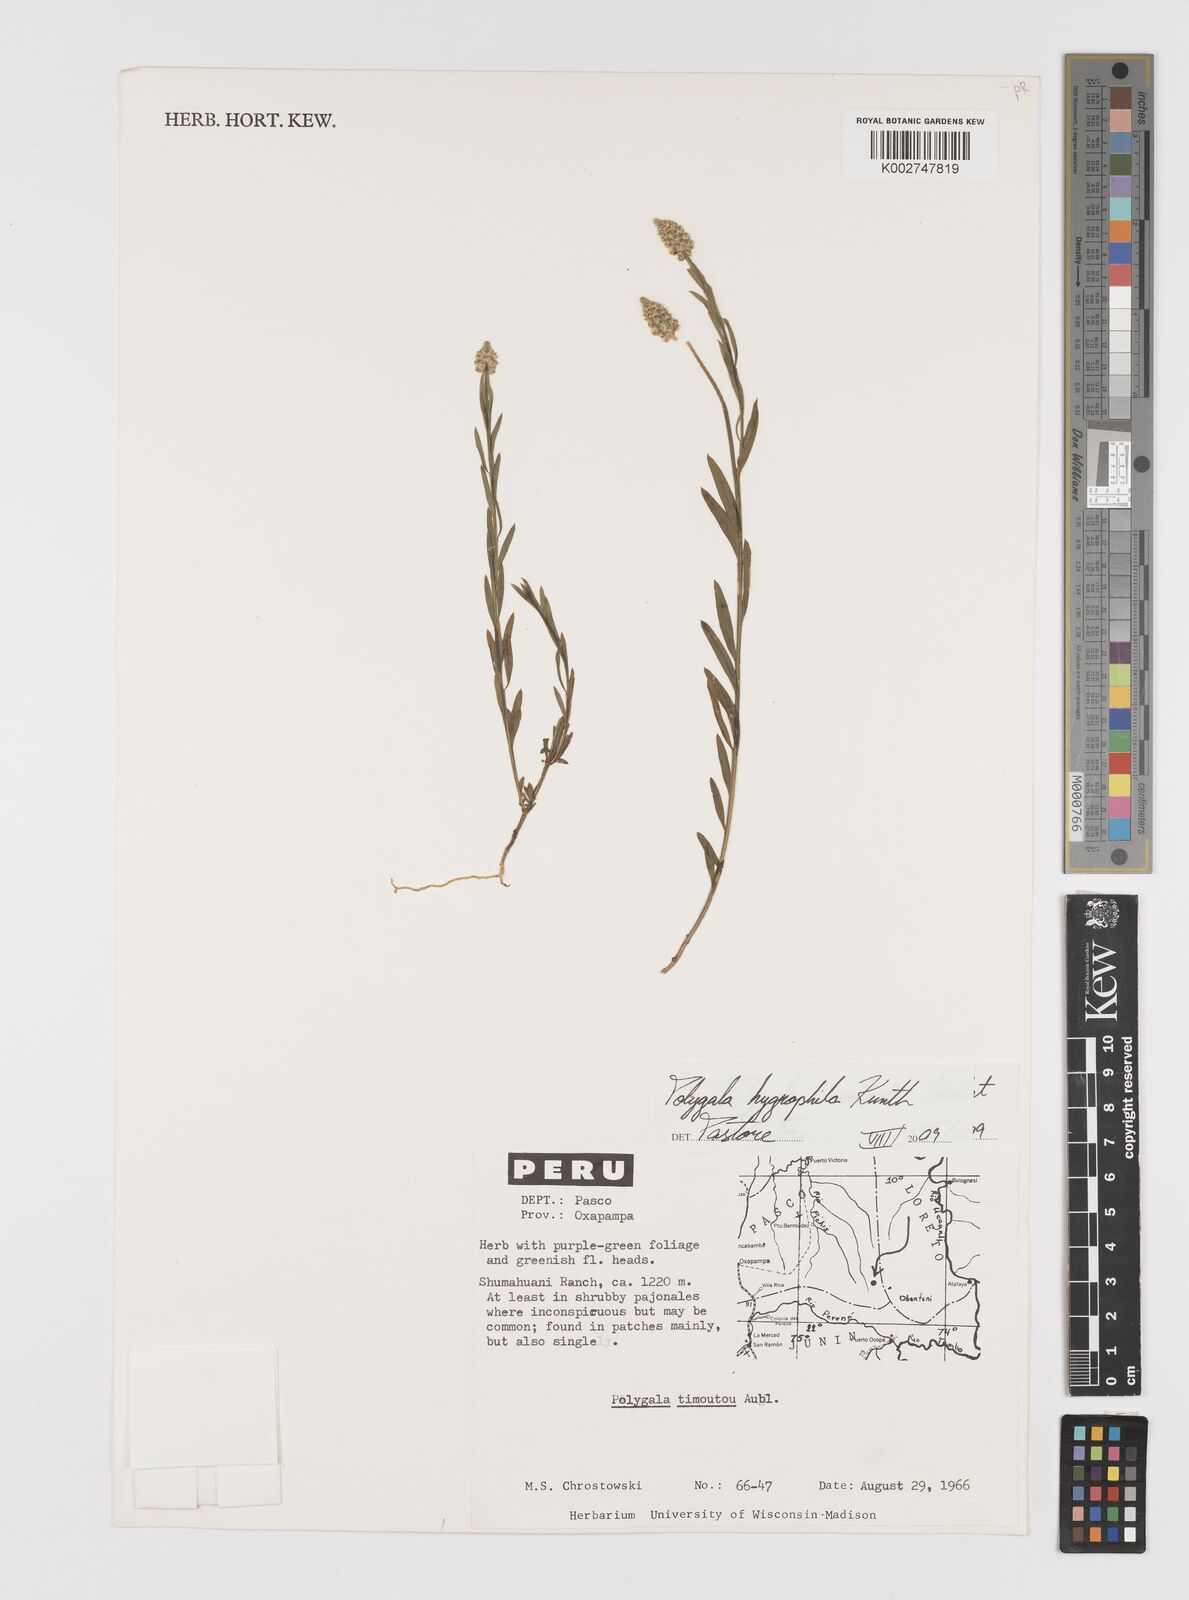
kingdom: Plantae
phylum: Tracheophyta
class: Magnoliopsida
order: Fabales
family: Polygalaceae
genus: Polygala
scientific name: Polygala hygrophila
